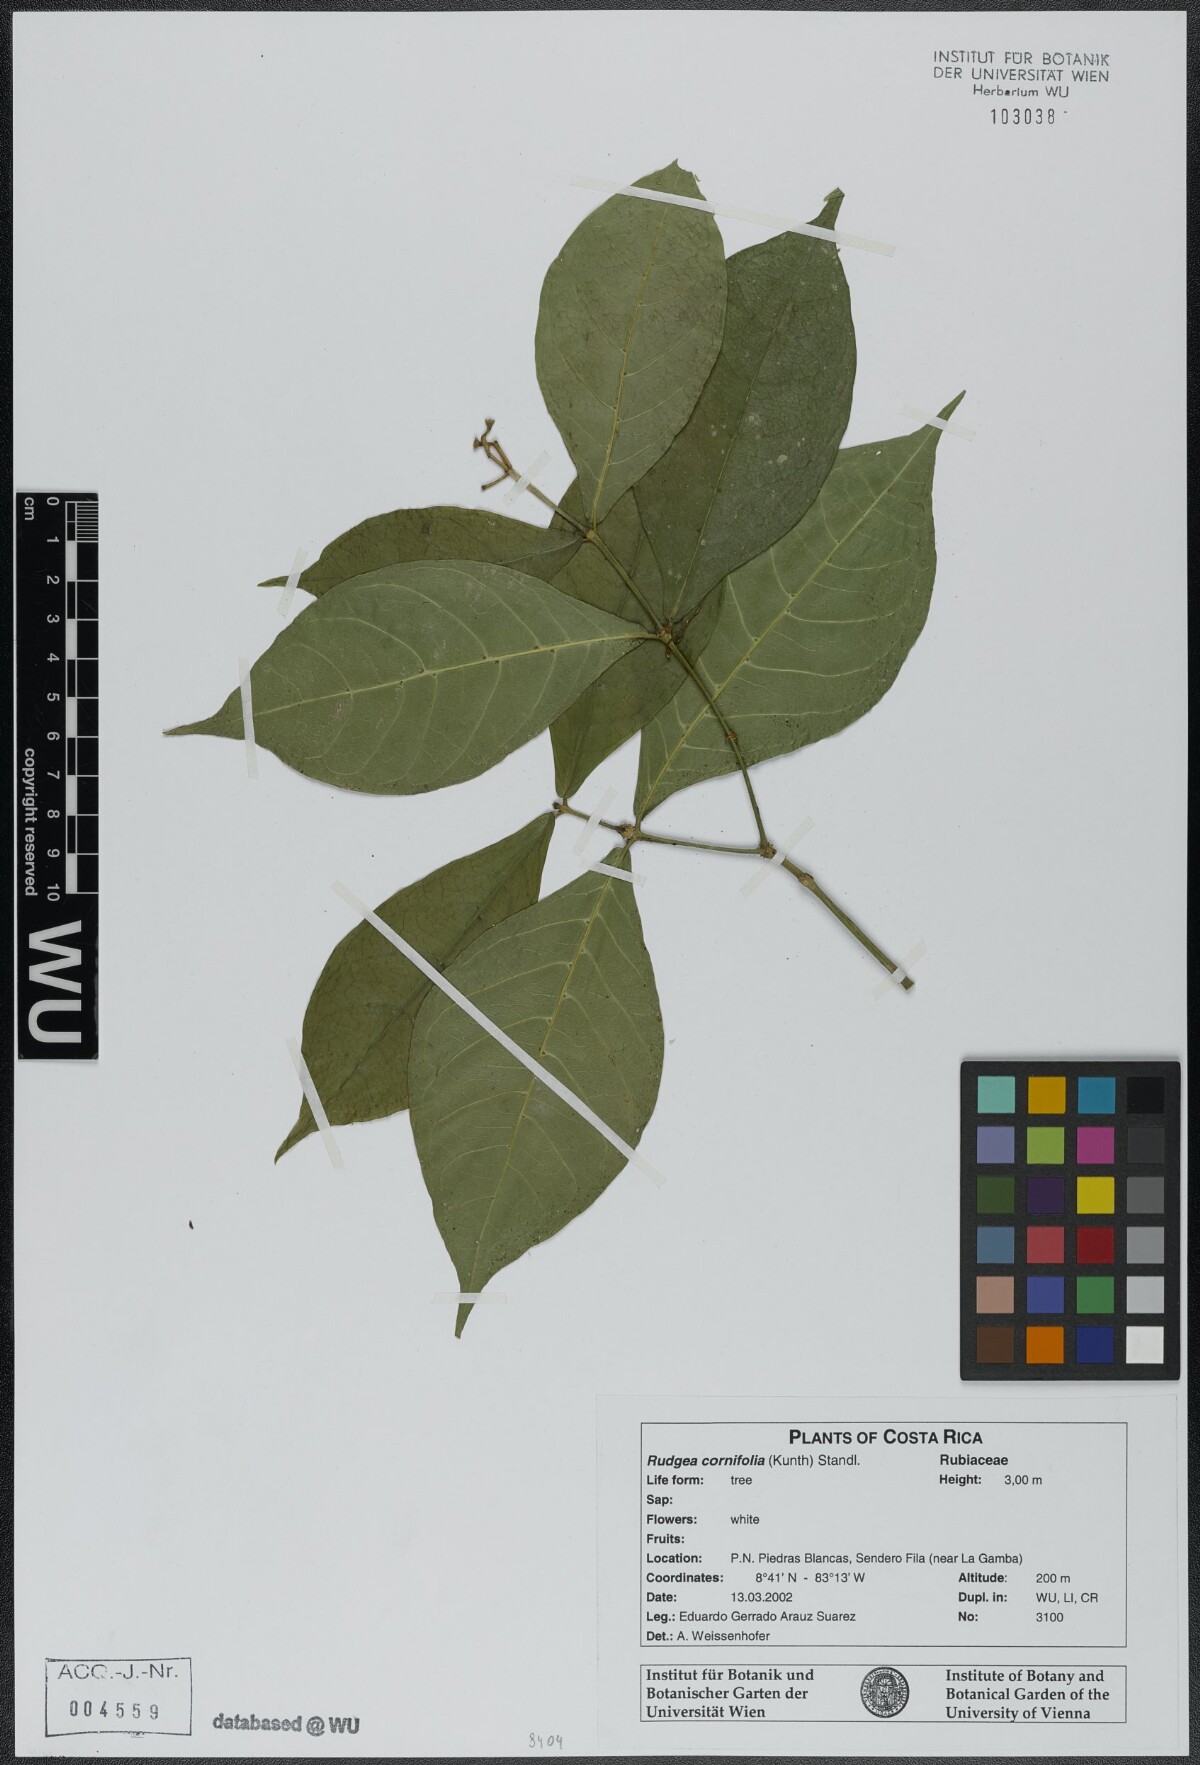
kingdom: Plantae
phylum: Tracheophyta
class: Magnoliopsida
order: Gentianales
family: Rubiaceae
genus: Rudgea
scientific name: Rudgea cornifolia
